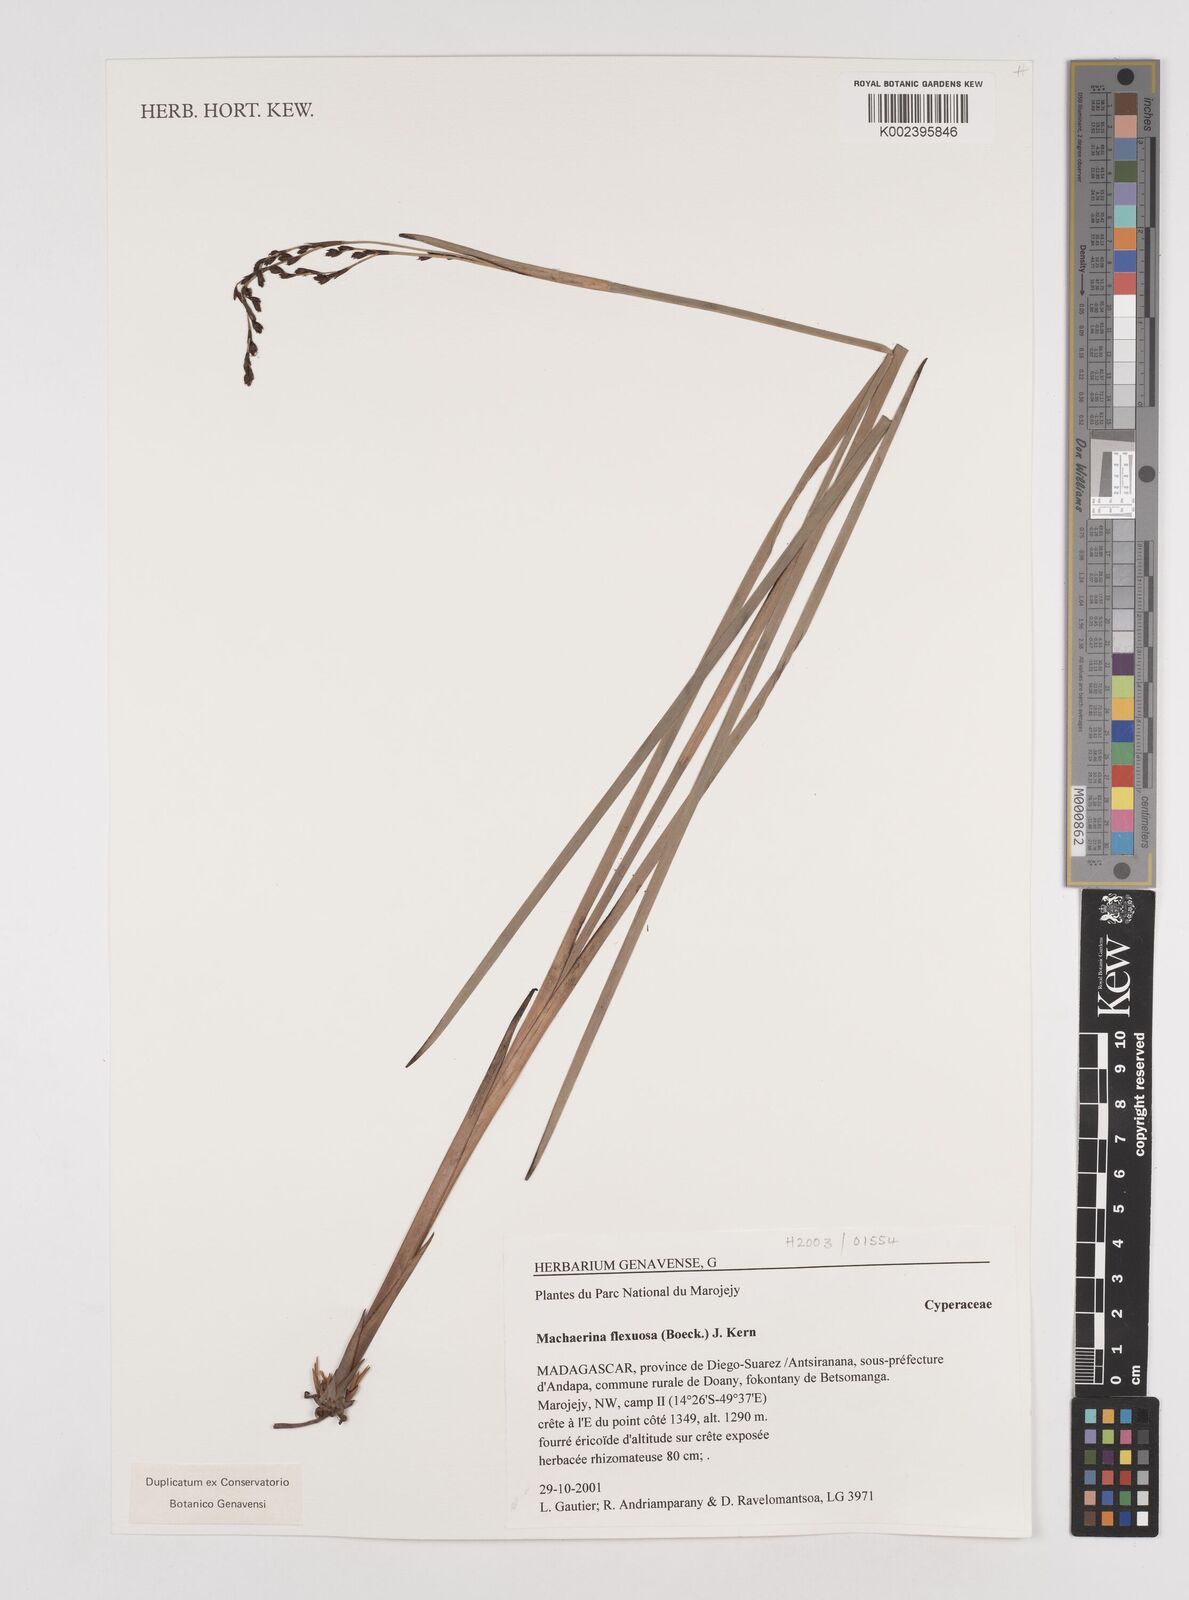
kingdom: Plantae
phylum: Tracheophyta
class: Liliopsida
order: Poales
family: Cyperaceae
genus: Machaerina
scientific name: Machaerina flexuosa
